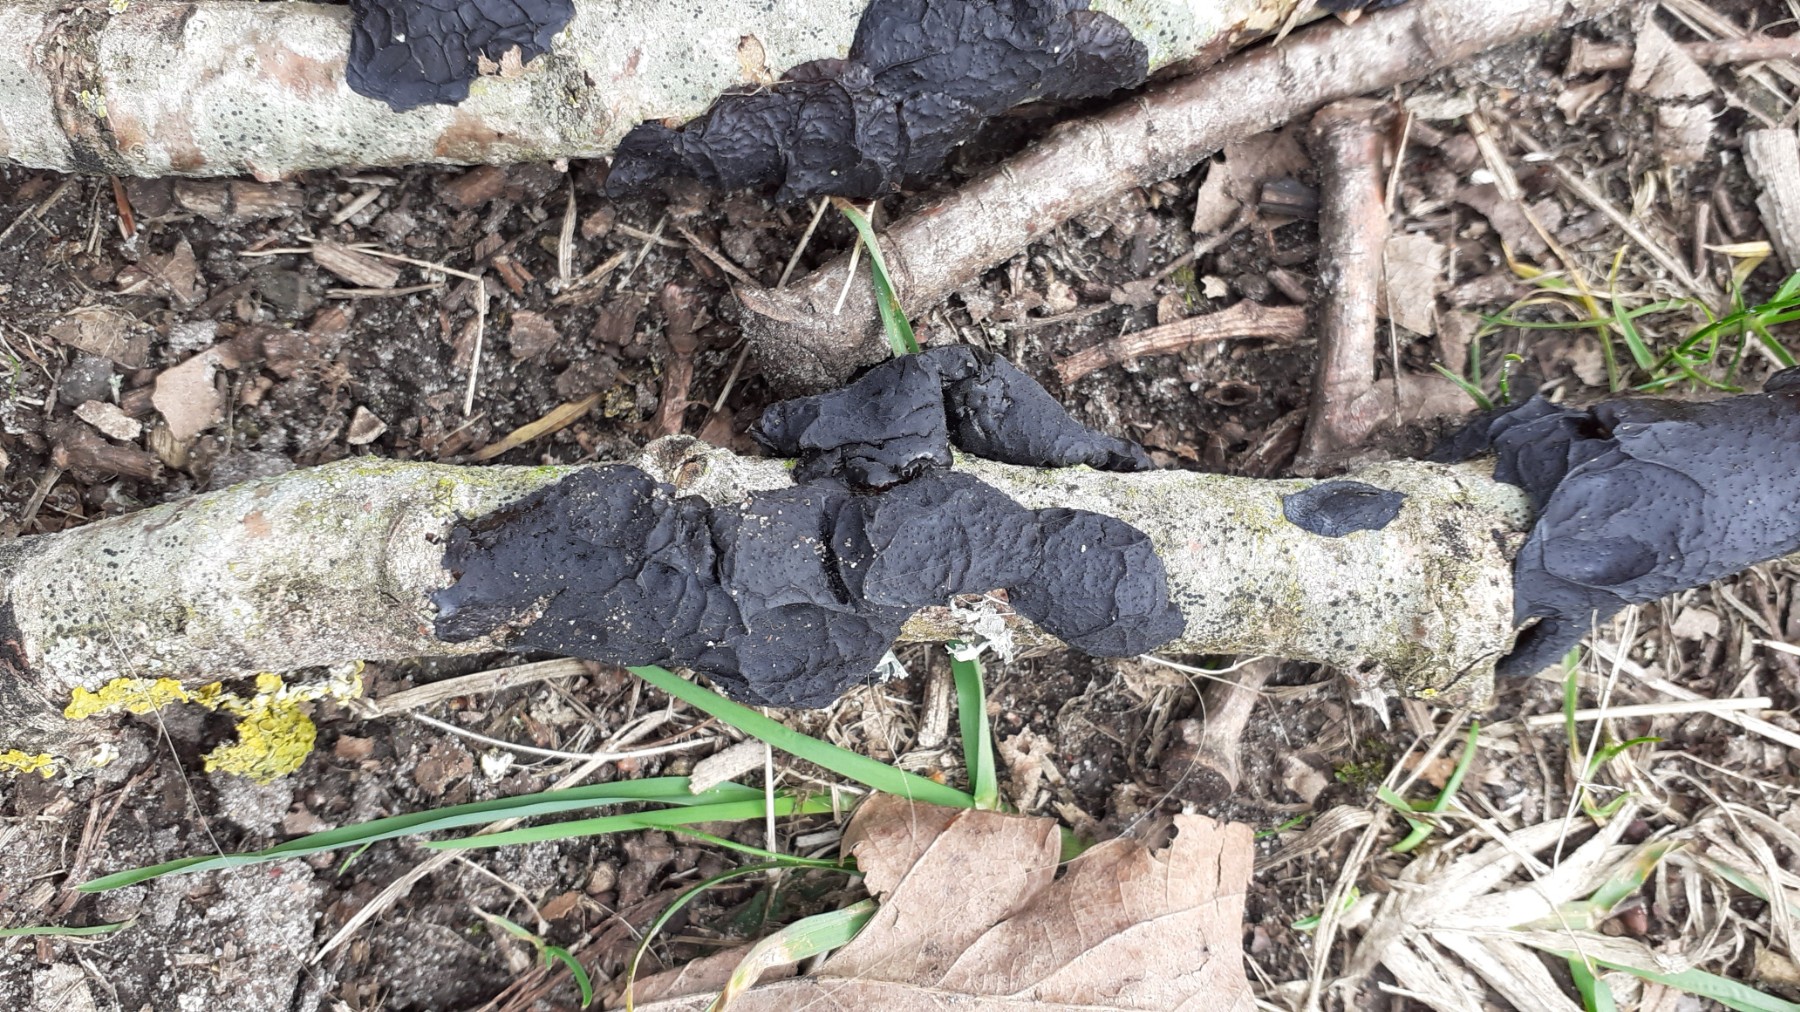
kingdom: Fungi
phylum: Basidiomycota
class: Agaricomycetes
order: Auriculariales
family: Auriculariaceae
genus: Exidia
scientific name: Exidia nigricans
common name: almindelig bævretop
